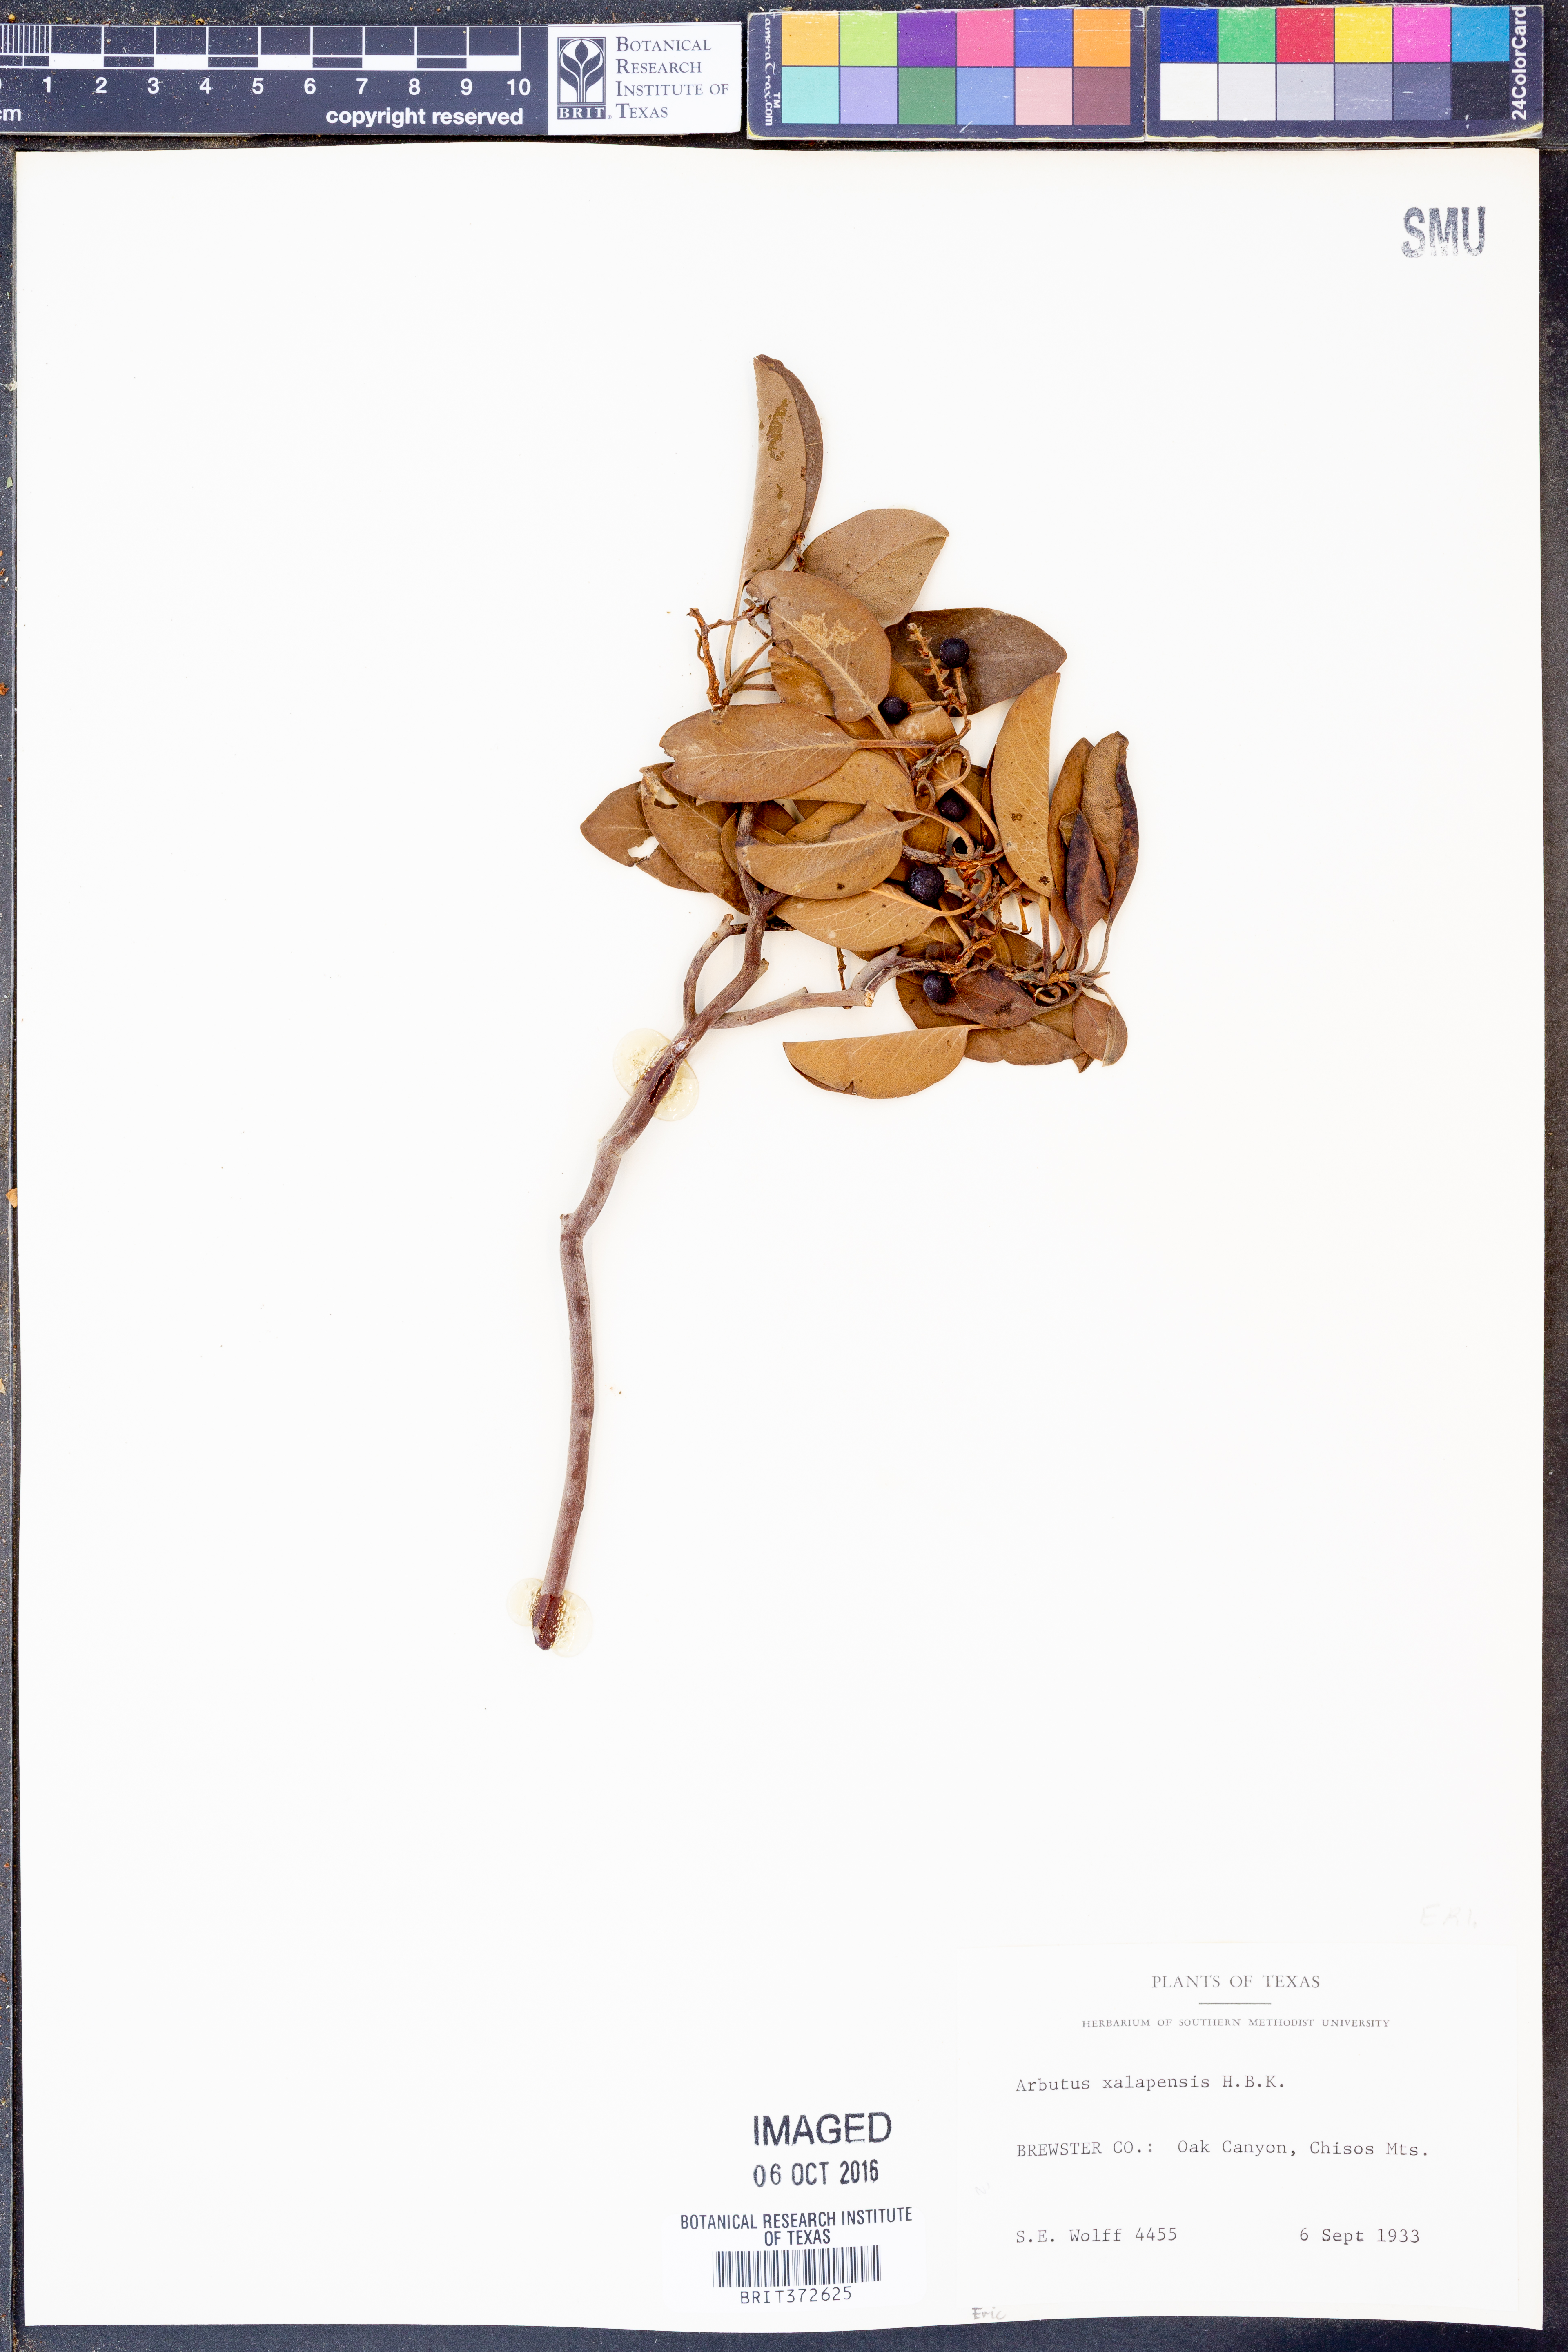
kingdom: Plantae
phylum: Tracheophyta
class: Magnoliopsida
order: Ericales
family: Ericaceae
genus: Arbutus
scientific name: Arbutus xalapensis
